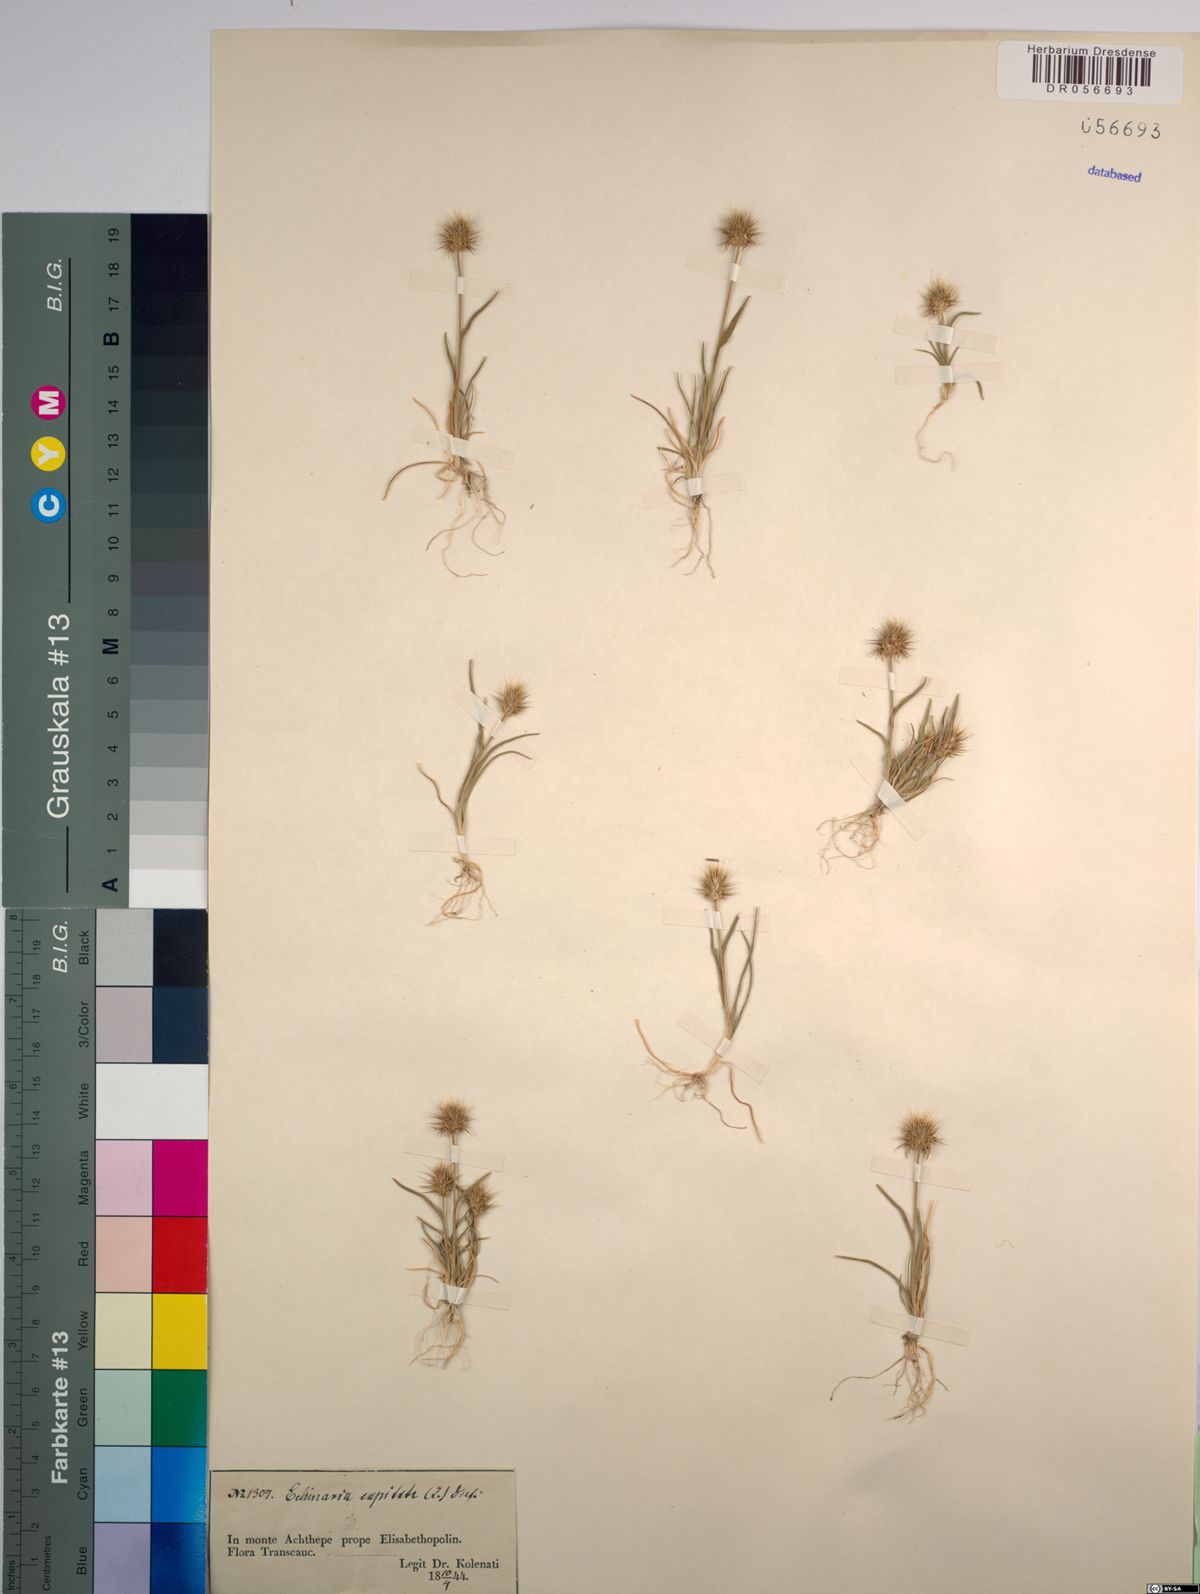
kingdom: Plantae
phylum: Tracheophyta
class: Liliopsida
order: Poales
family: Poaceae
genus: Echinaria
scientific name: Echinaria capitata
